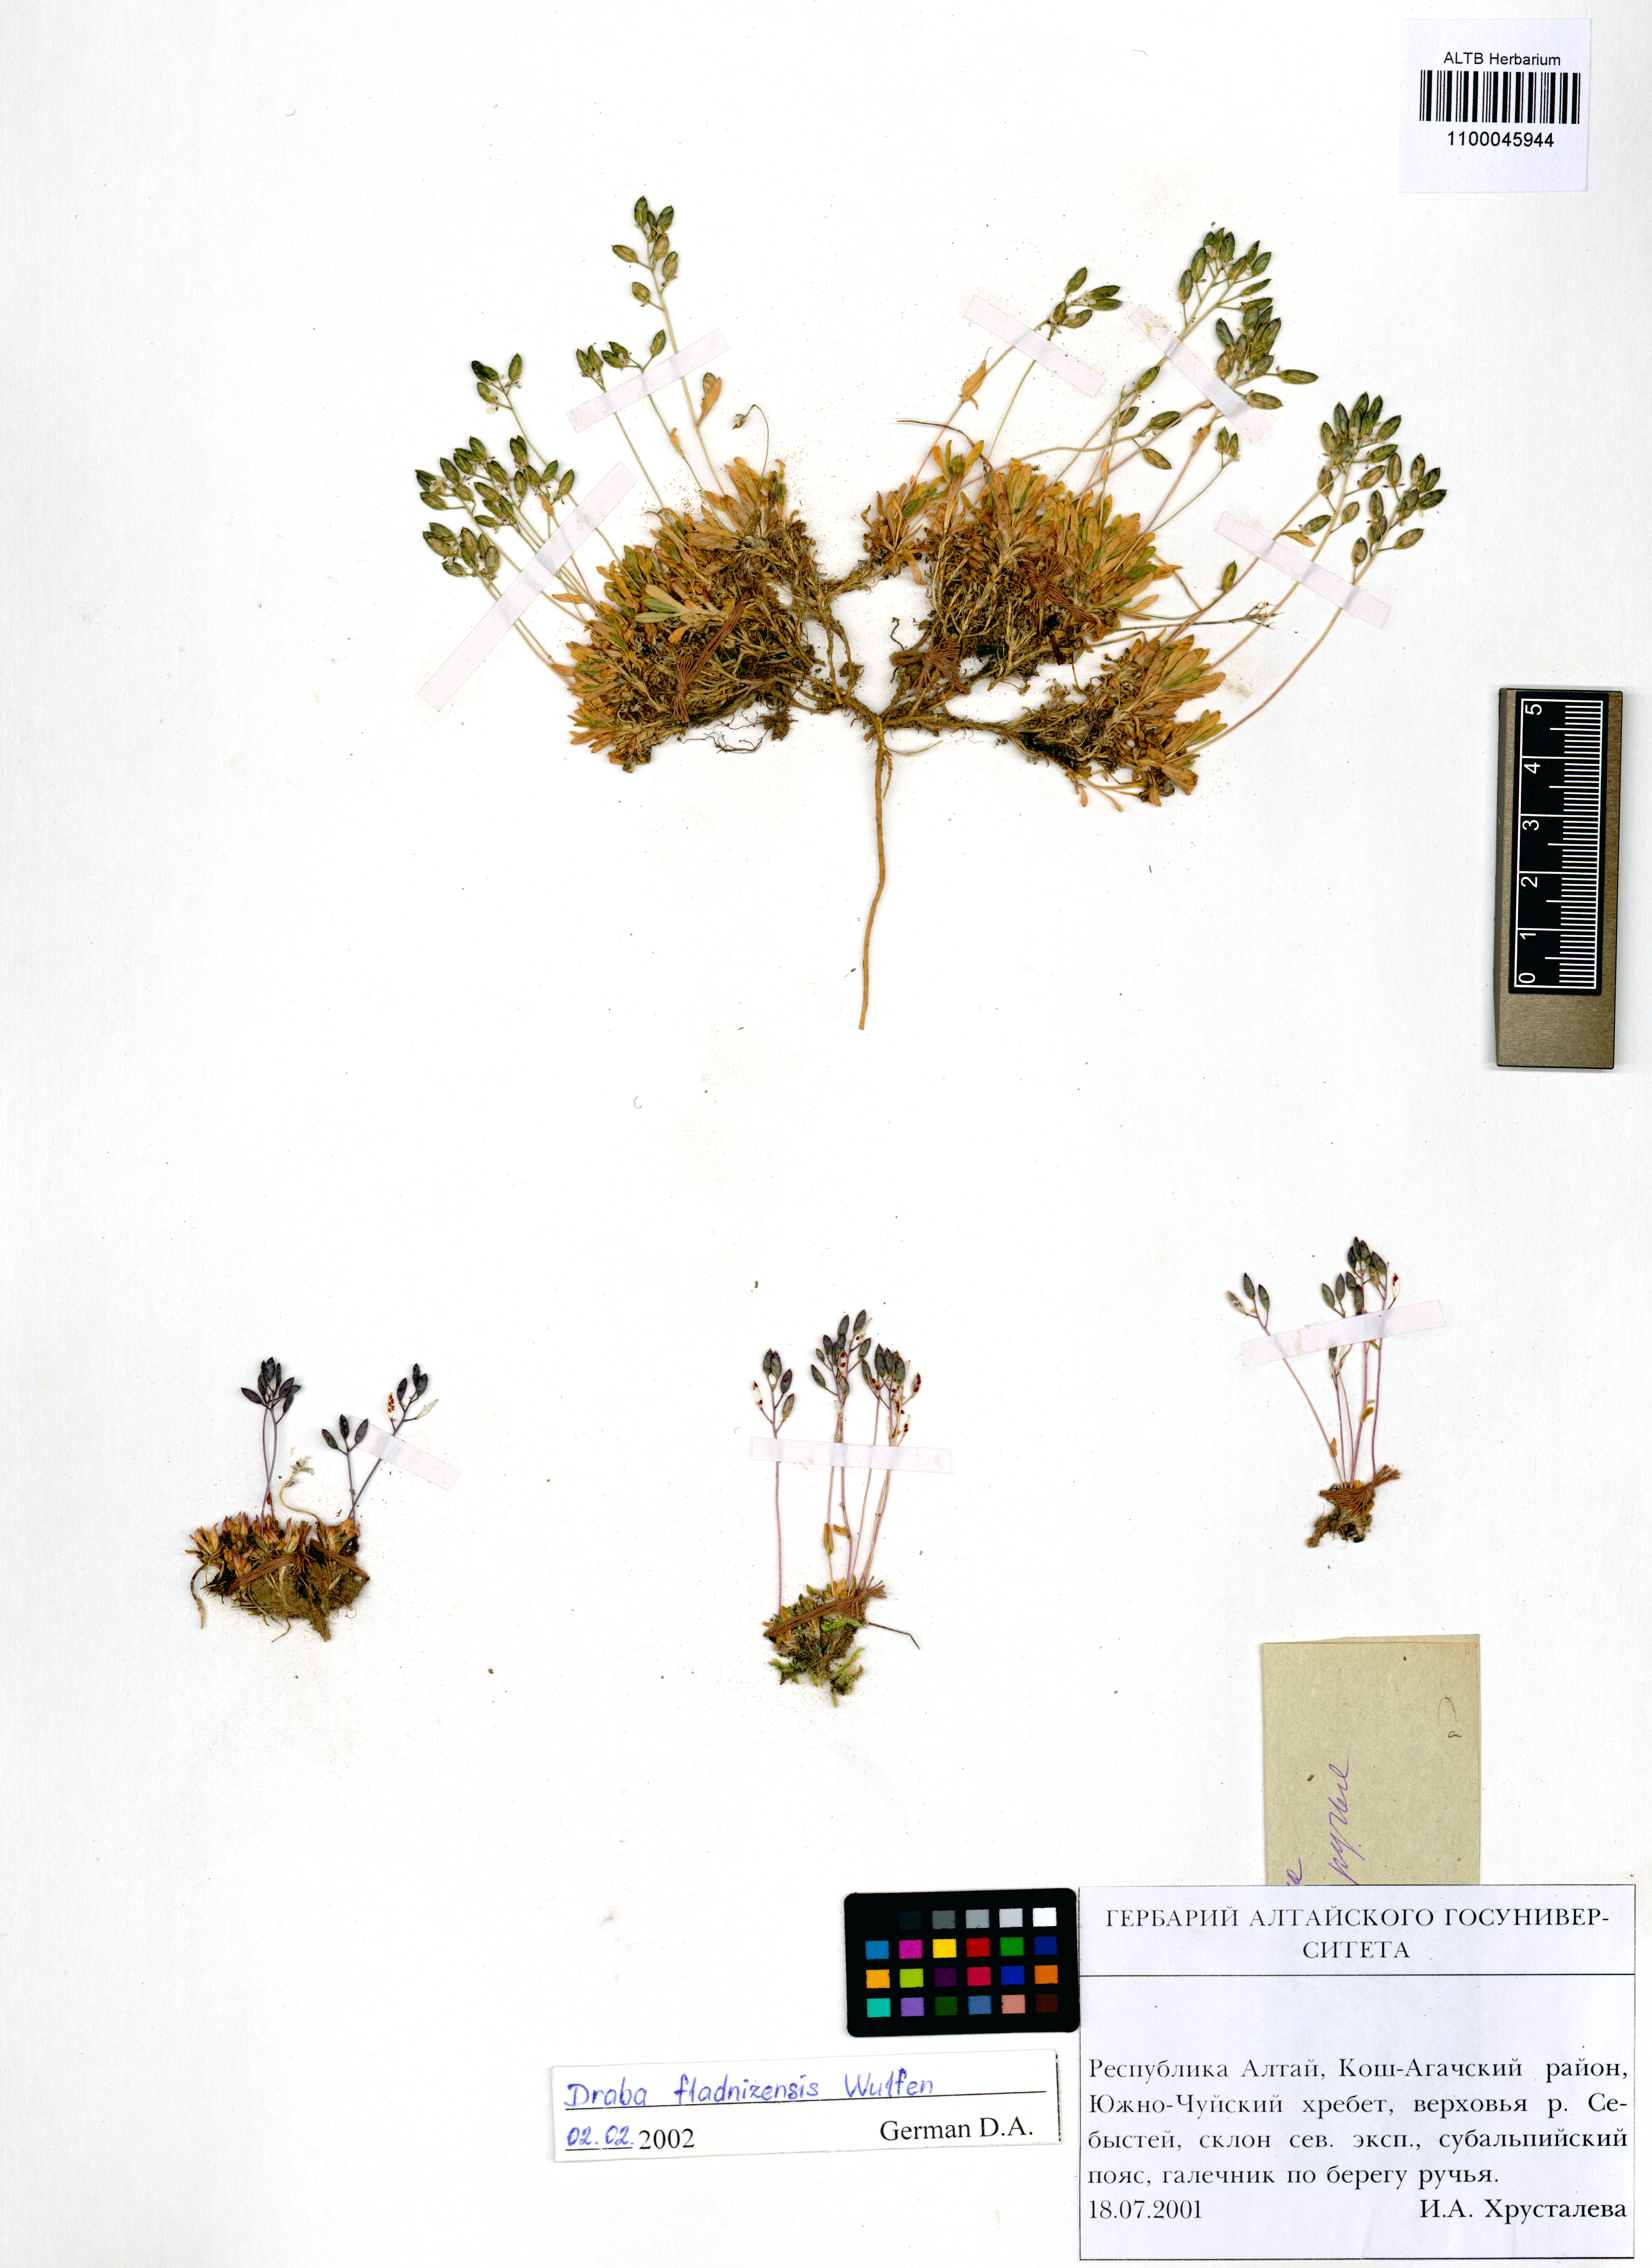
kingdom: Plantae
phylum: Tracheophyta
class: Magnoliopsida
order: Brassicales
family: Brassicaceae
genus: Draba
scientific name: Draba fladnizensis
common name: Austrian draba
